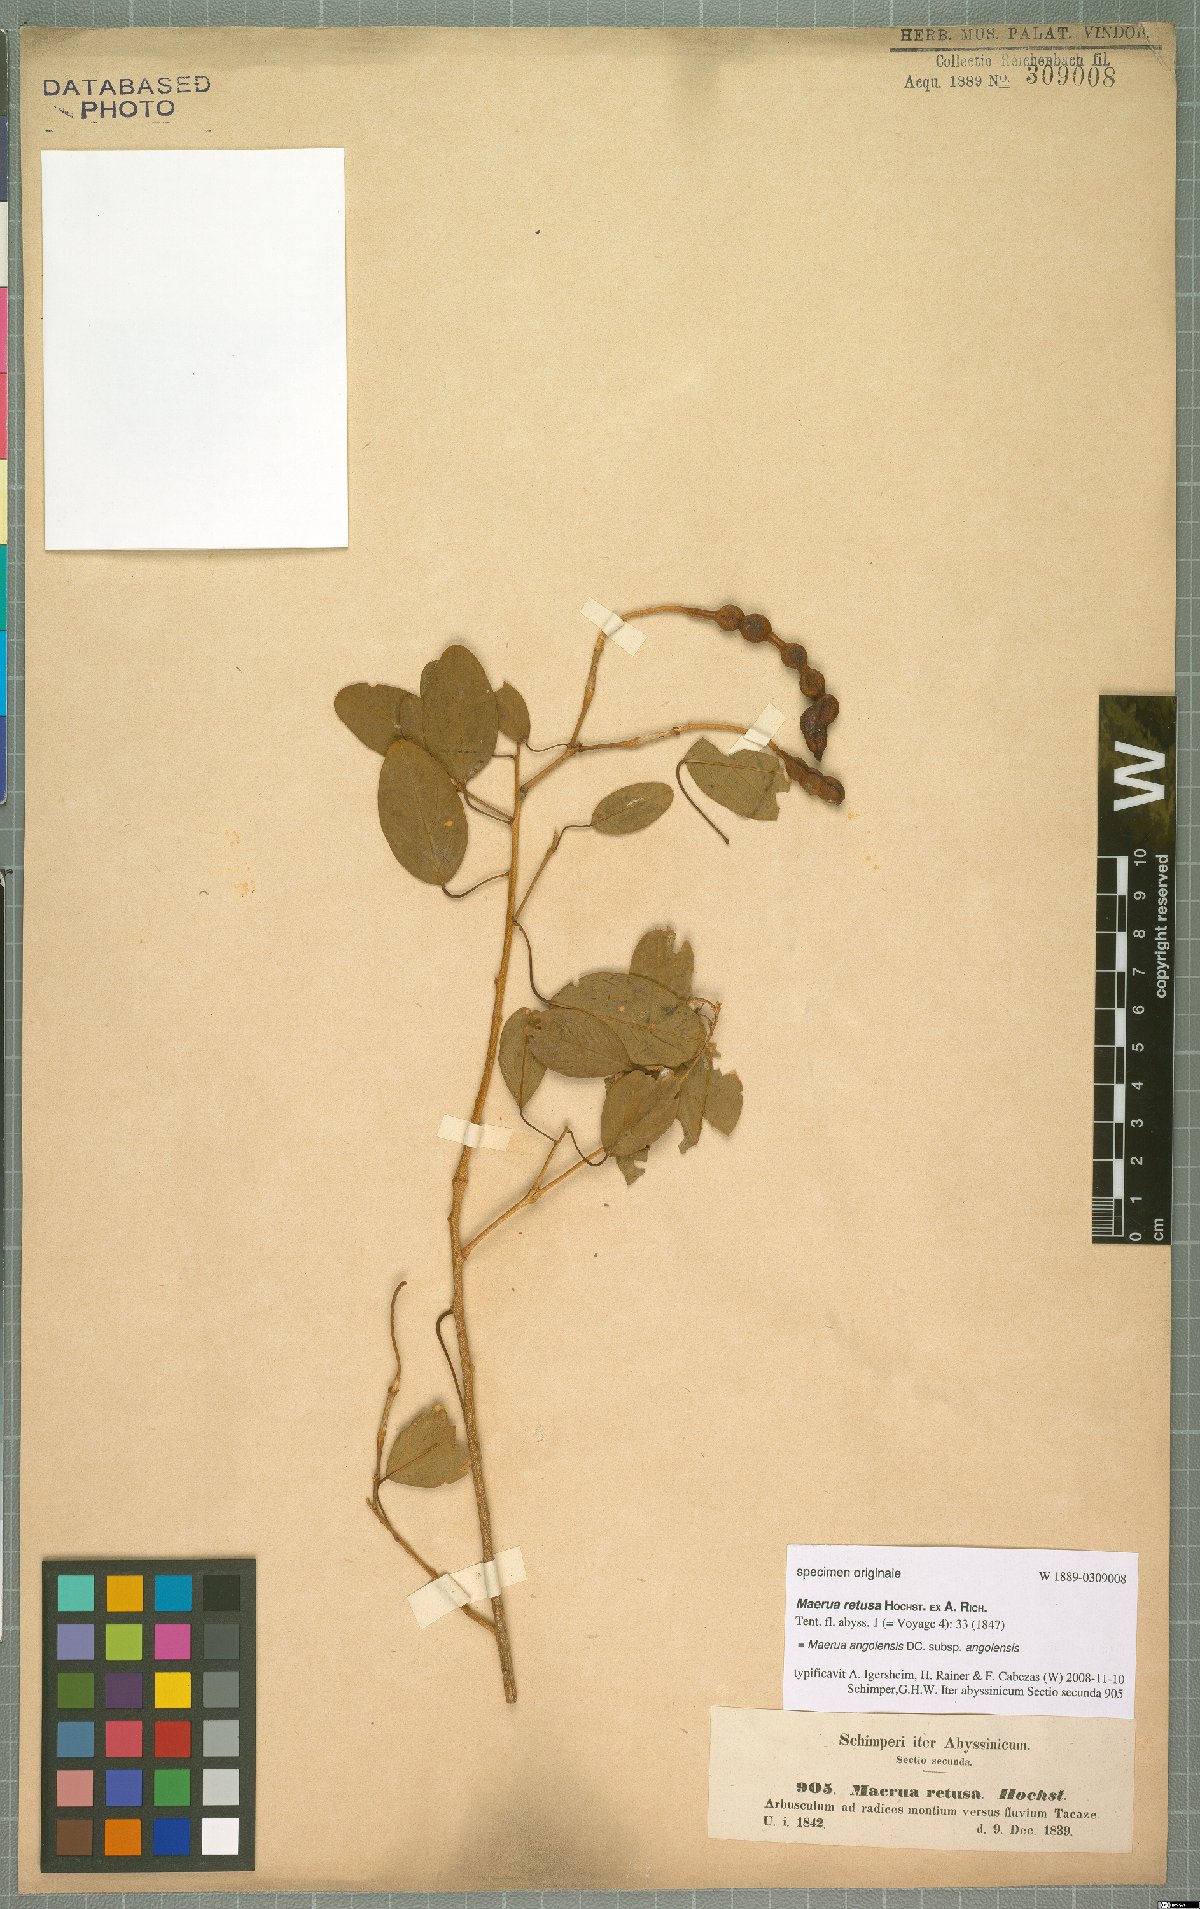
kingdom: Plantae
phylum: Tracheophyta
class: Magnoliopsida
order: Brassicales
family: Capparaceae
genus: Maerua
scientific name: Maerua angolensis
